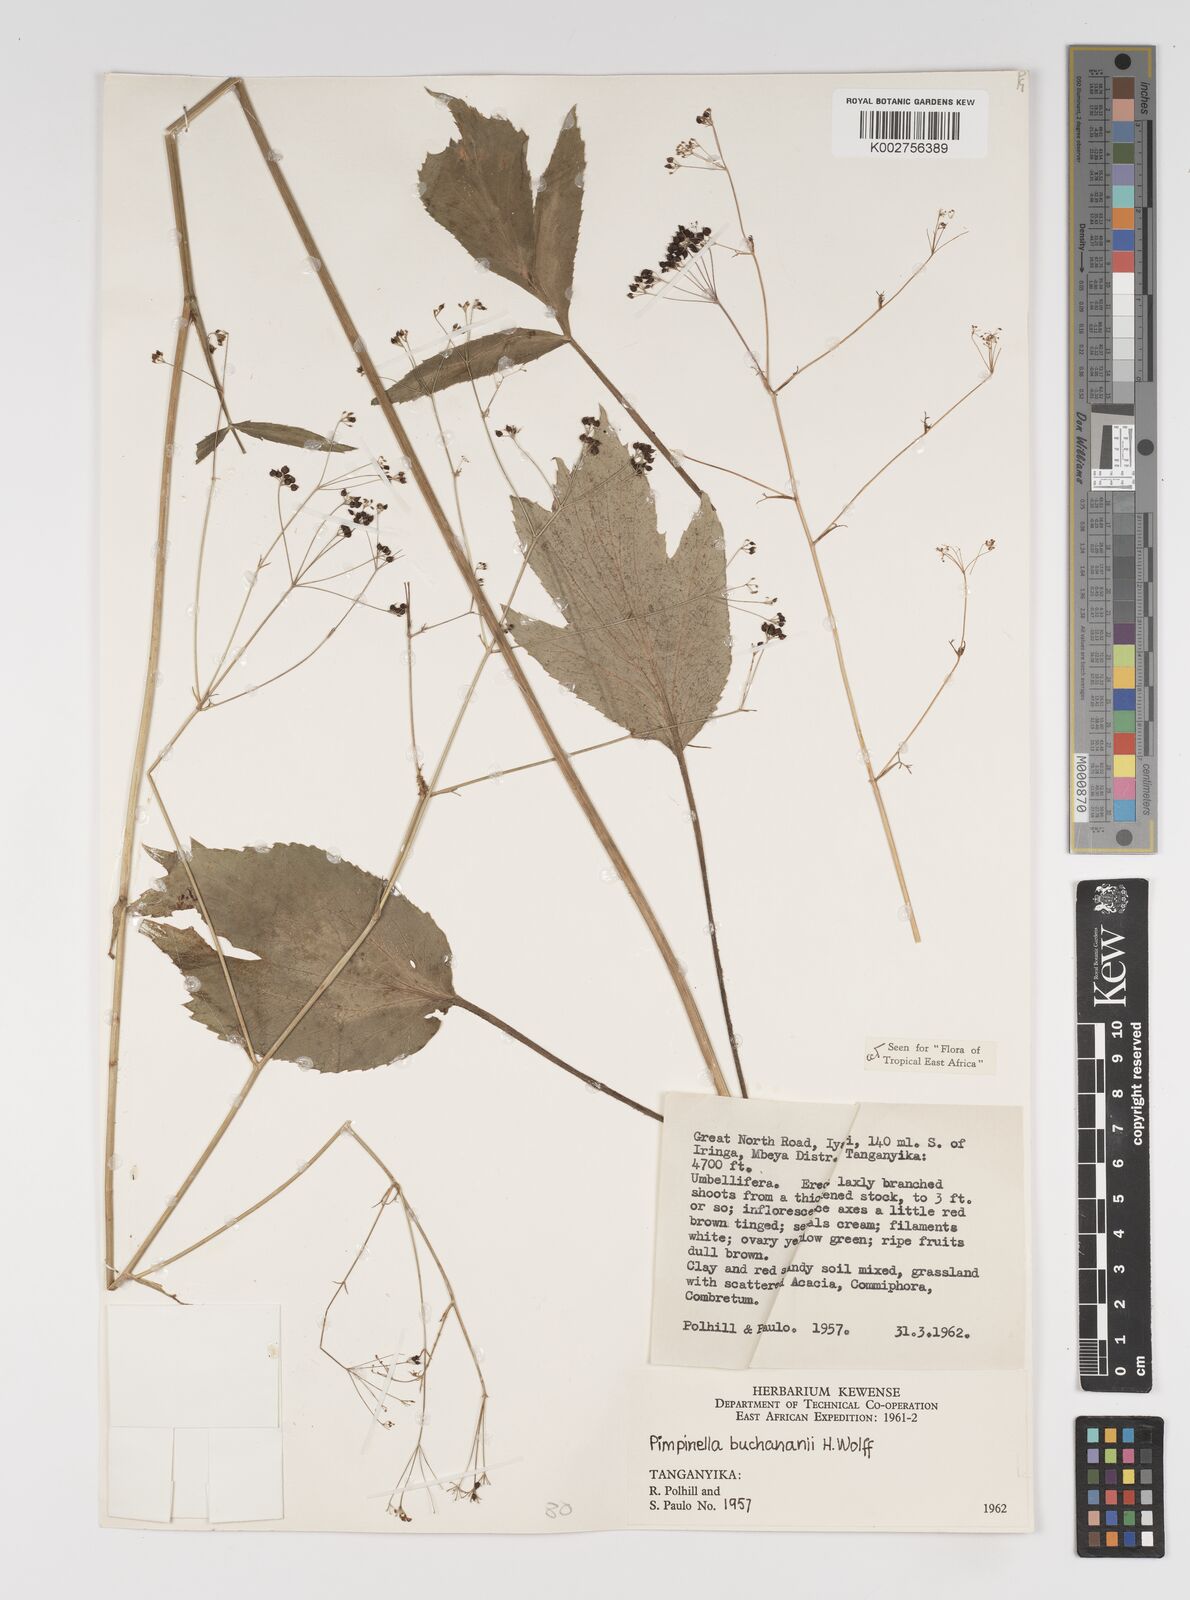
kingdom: Plantae
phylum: Tracheophyta
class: Magnoliopsida
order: Apiales
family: Apiaceae
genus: Pimpinella
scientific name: Pimpinella buchananii
